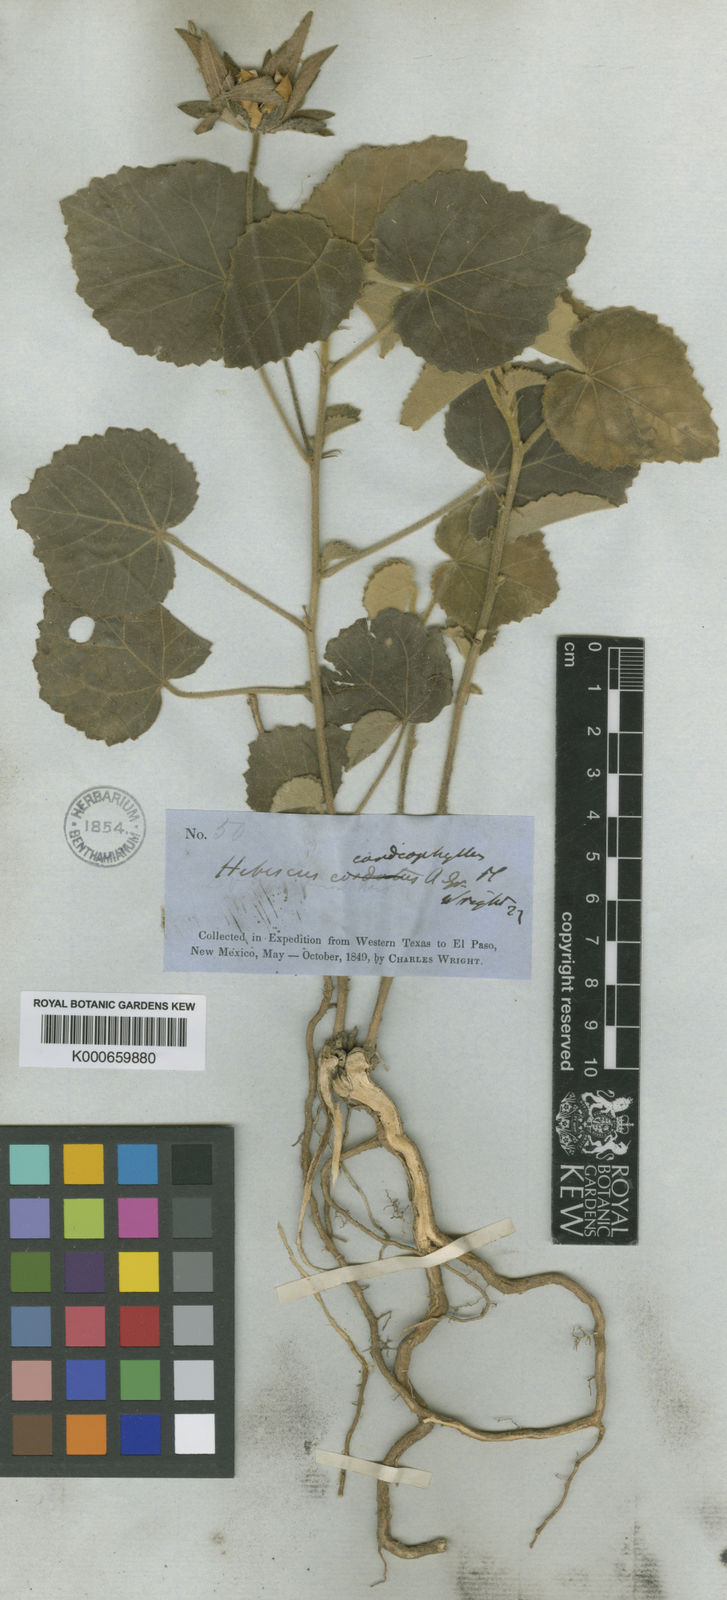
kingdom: Plantae
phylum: Tracheophyta
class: Magnoliopsida
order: Malvales
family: Malvaceae
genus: Hibiscus
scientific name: Hibiscus martianus
